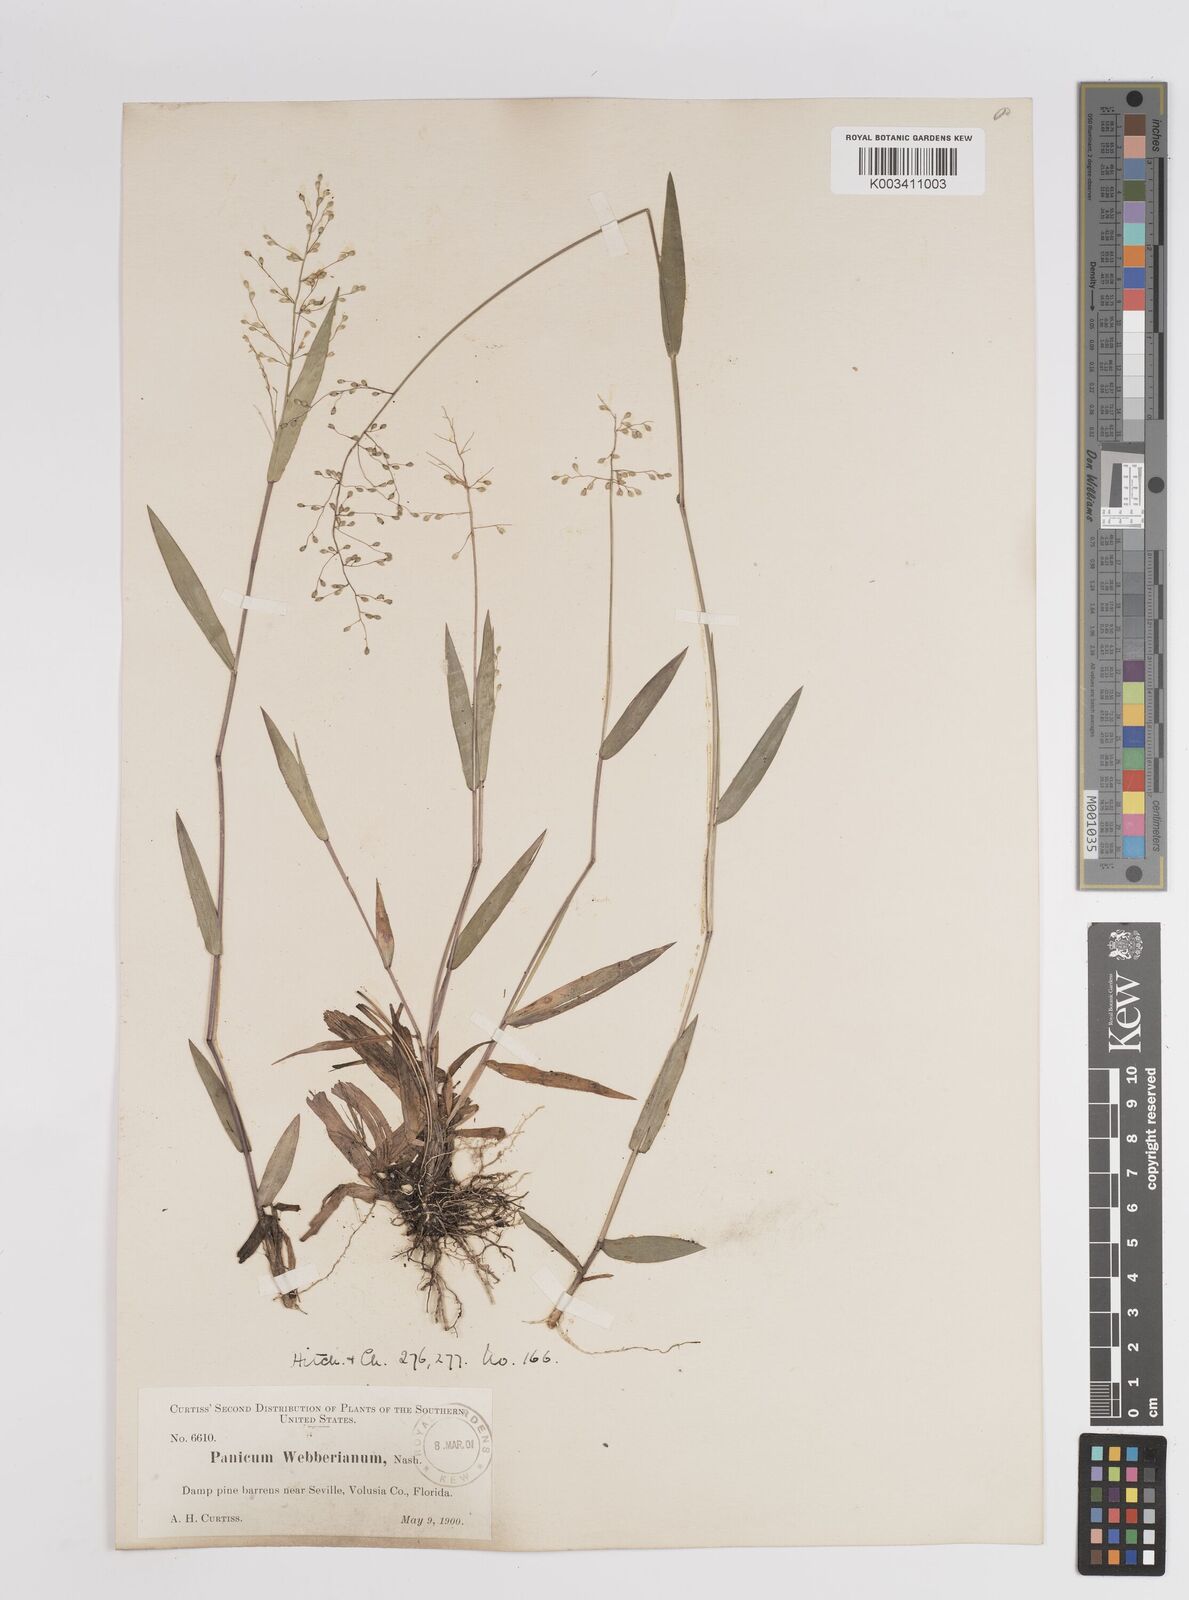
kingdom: Plantae
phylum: Tracheophyta
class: Liliopsida
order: Poales
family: Poaceae
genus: Dichanthelium
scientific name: Dichanthelium webberianum
